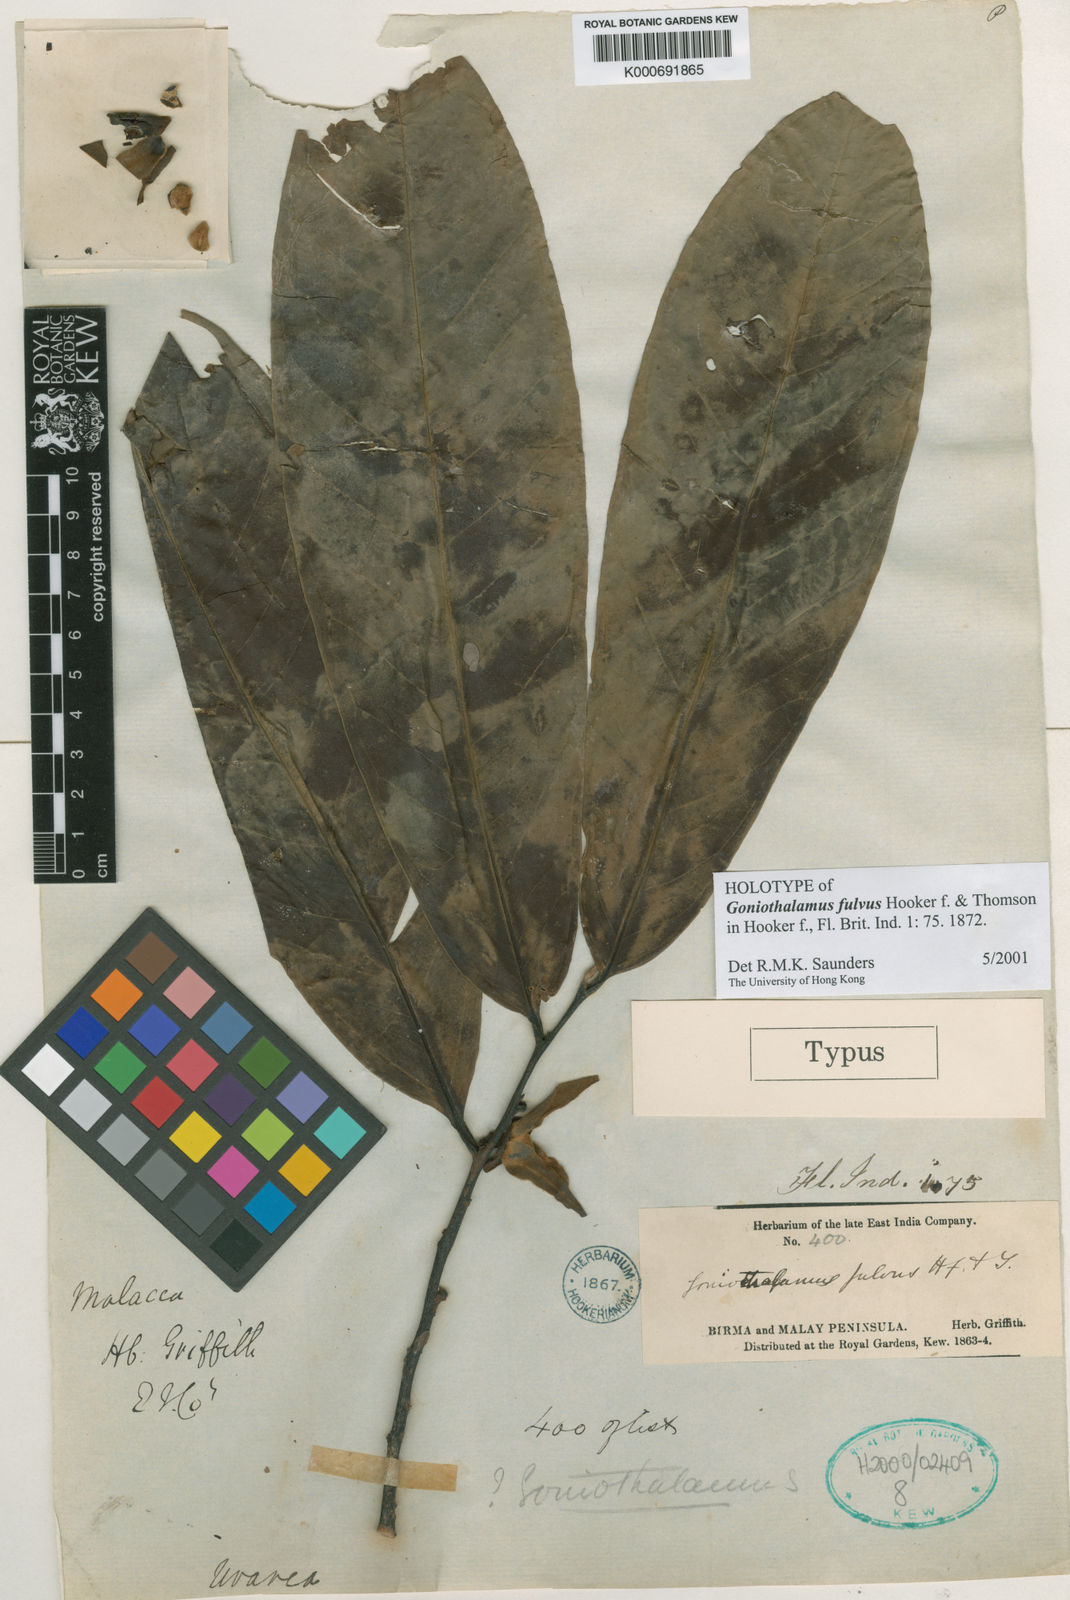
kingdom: Plantae
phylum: Tracheophyta
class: Magnoliopsida
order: Magnoliales
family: Annonaceae
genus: Goniothalamus
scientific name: Goniothalamus fulvus
